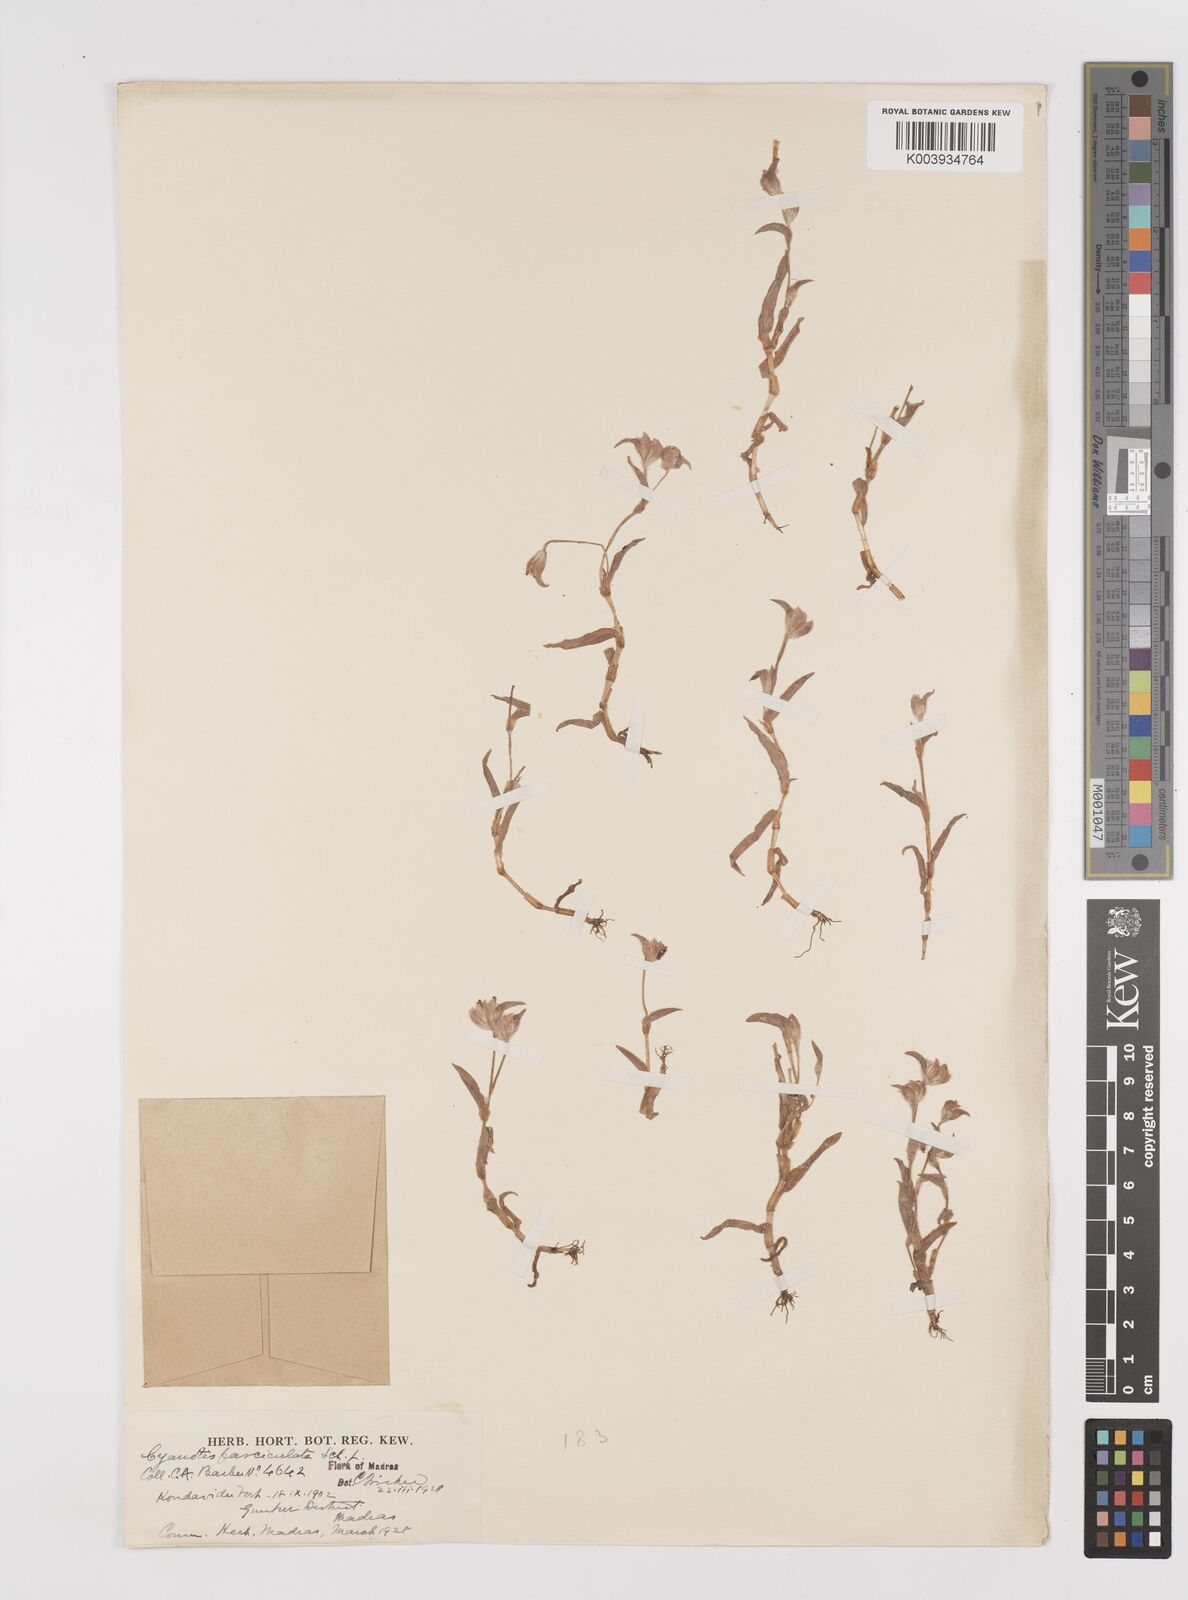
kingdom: Plantae
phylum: Tracheophyta
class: Liliopsida
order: Commelinales
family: Commelinaceae
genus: Cyanotis
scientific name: Cyanotis fasciculata
